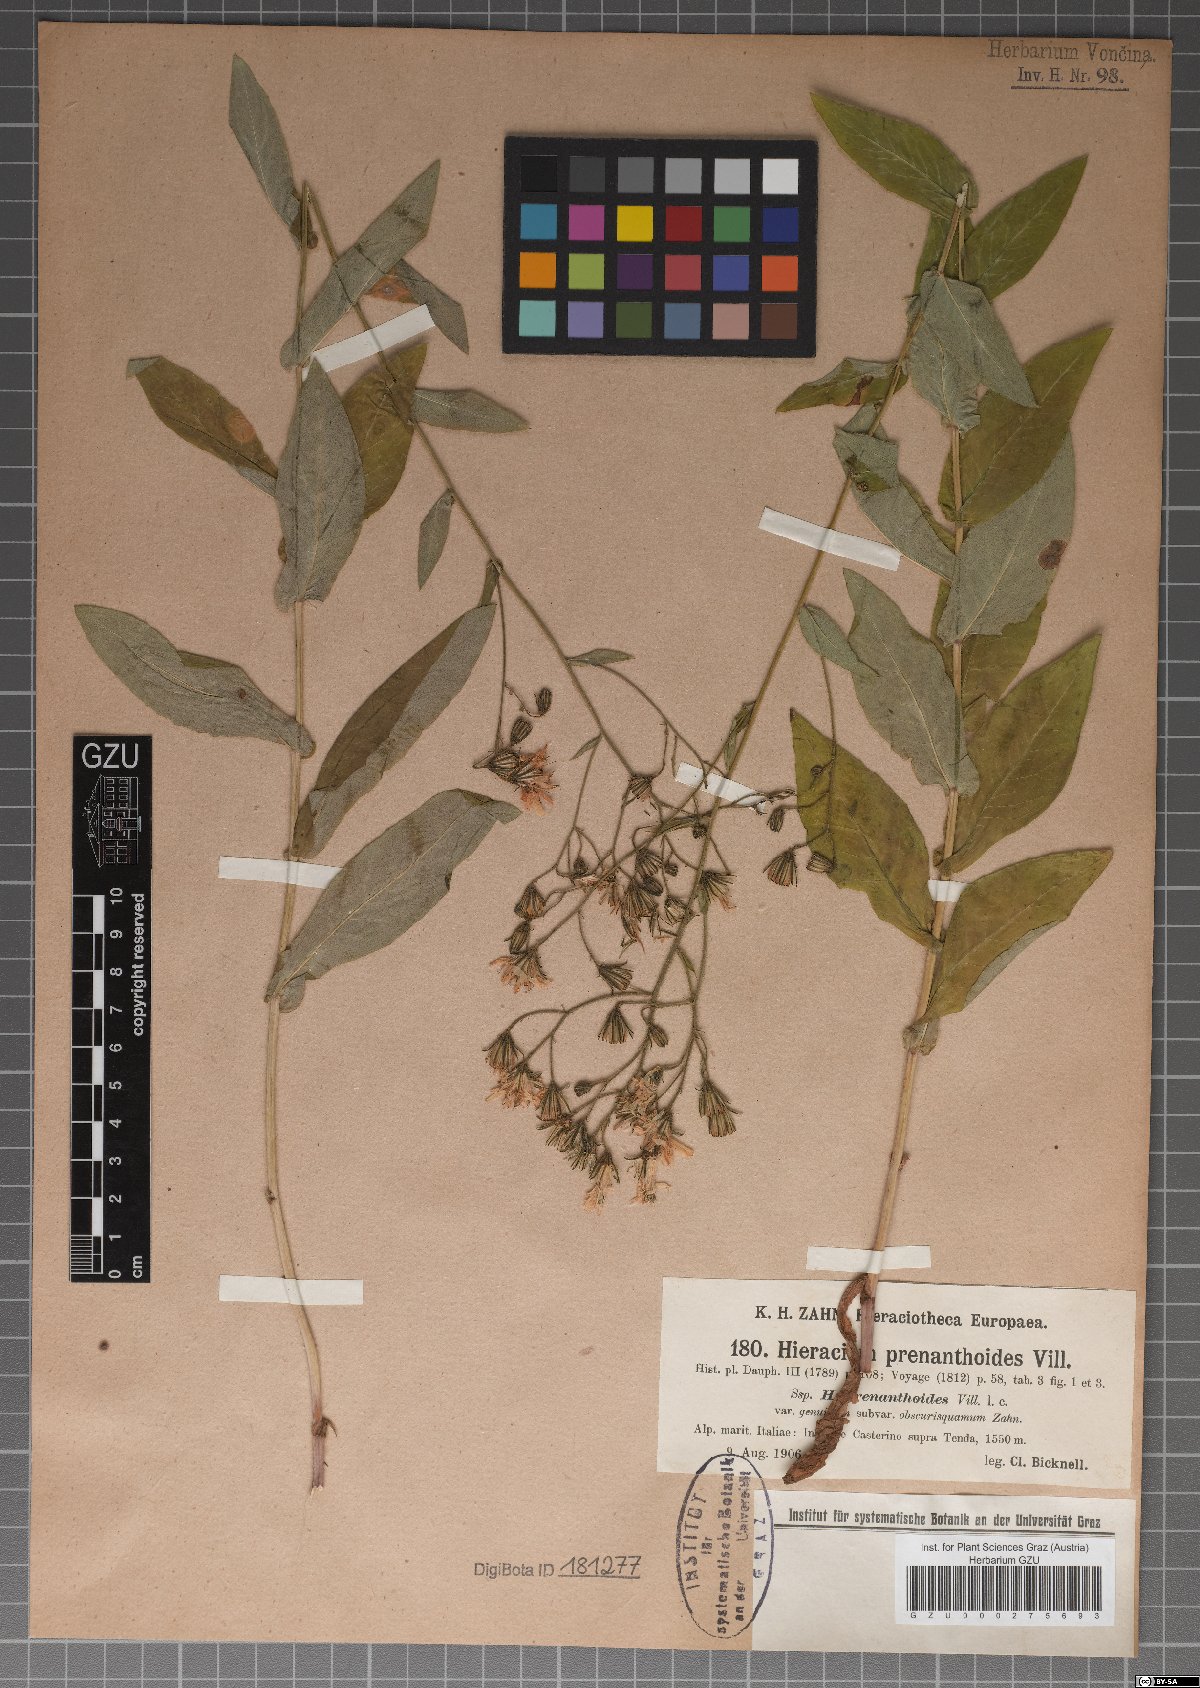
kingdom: Plantae
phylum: Tracheophyta
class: Magnoliopsida
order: Asterales
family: Asteraceae
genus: Hieracium
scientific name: Hieracium prenanthoides
